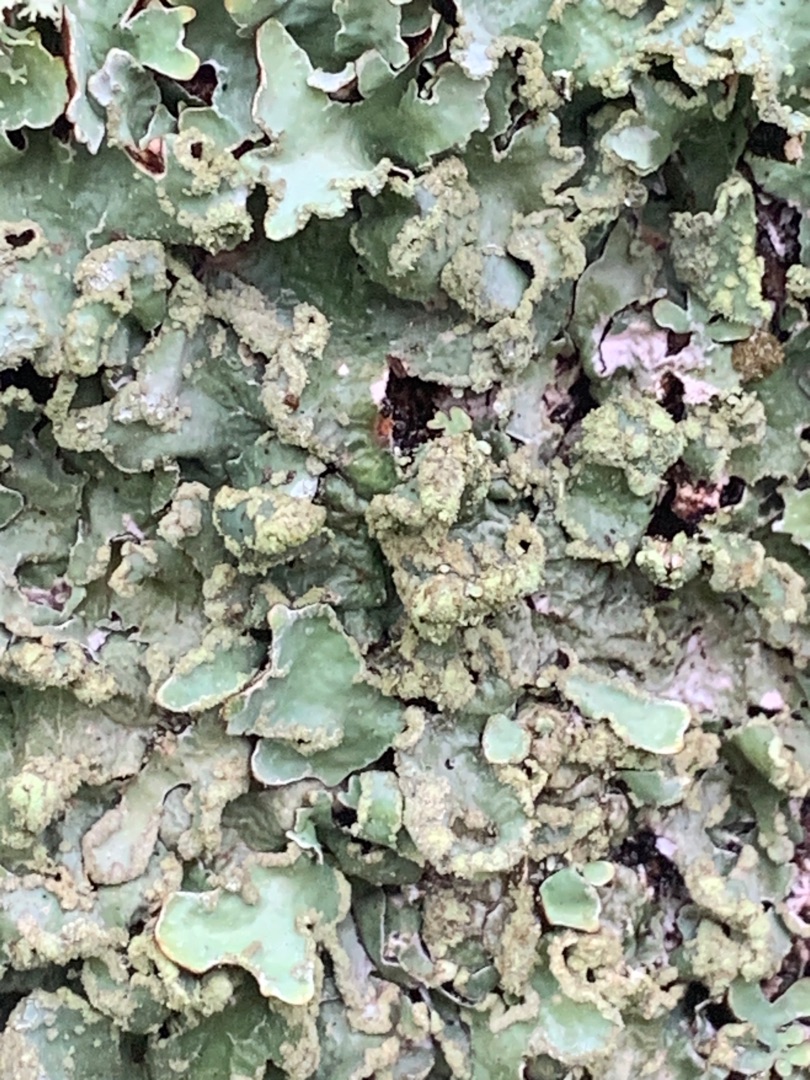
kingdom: Fungi
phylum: Ascomycota
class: Lecanoromycetes
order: Lecanorales
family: Parmeliaceae
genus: Parmelia
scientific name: Parmelia sulcata
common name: Rynket skållav
